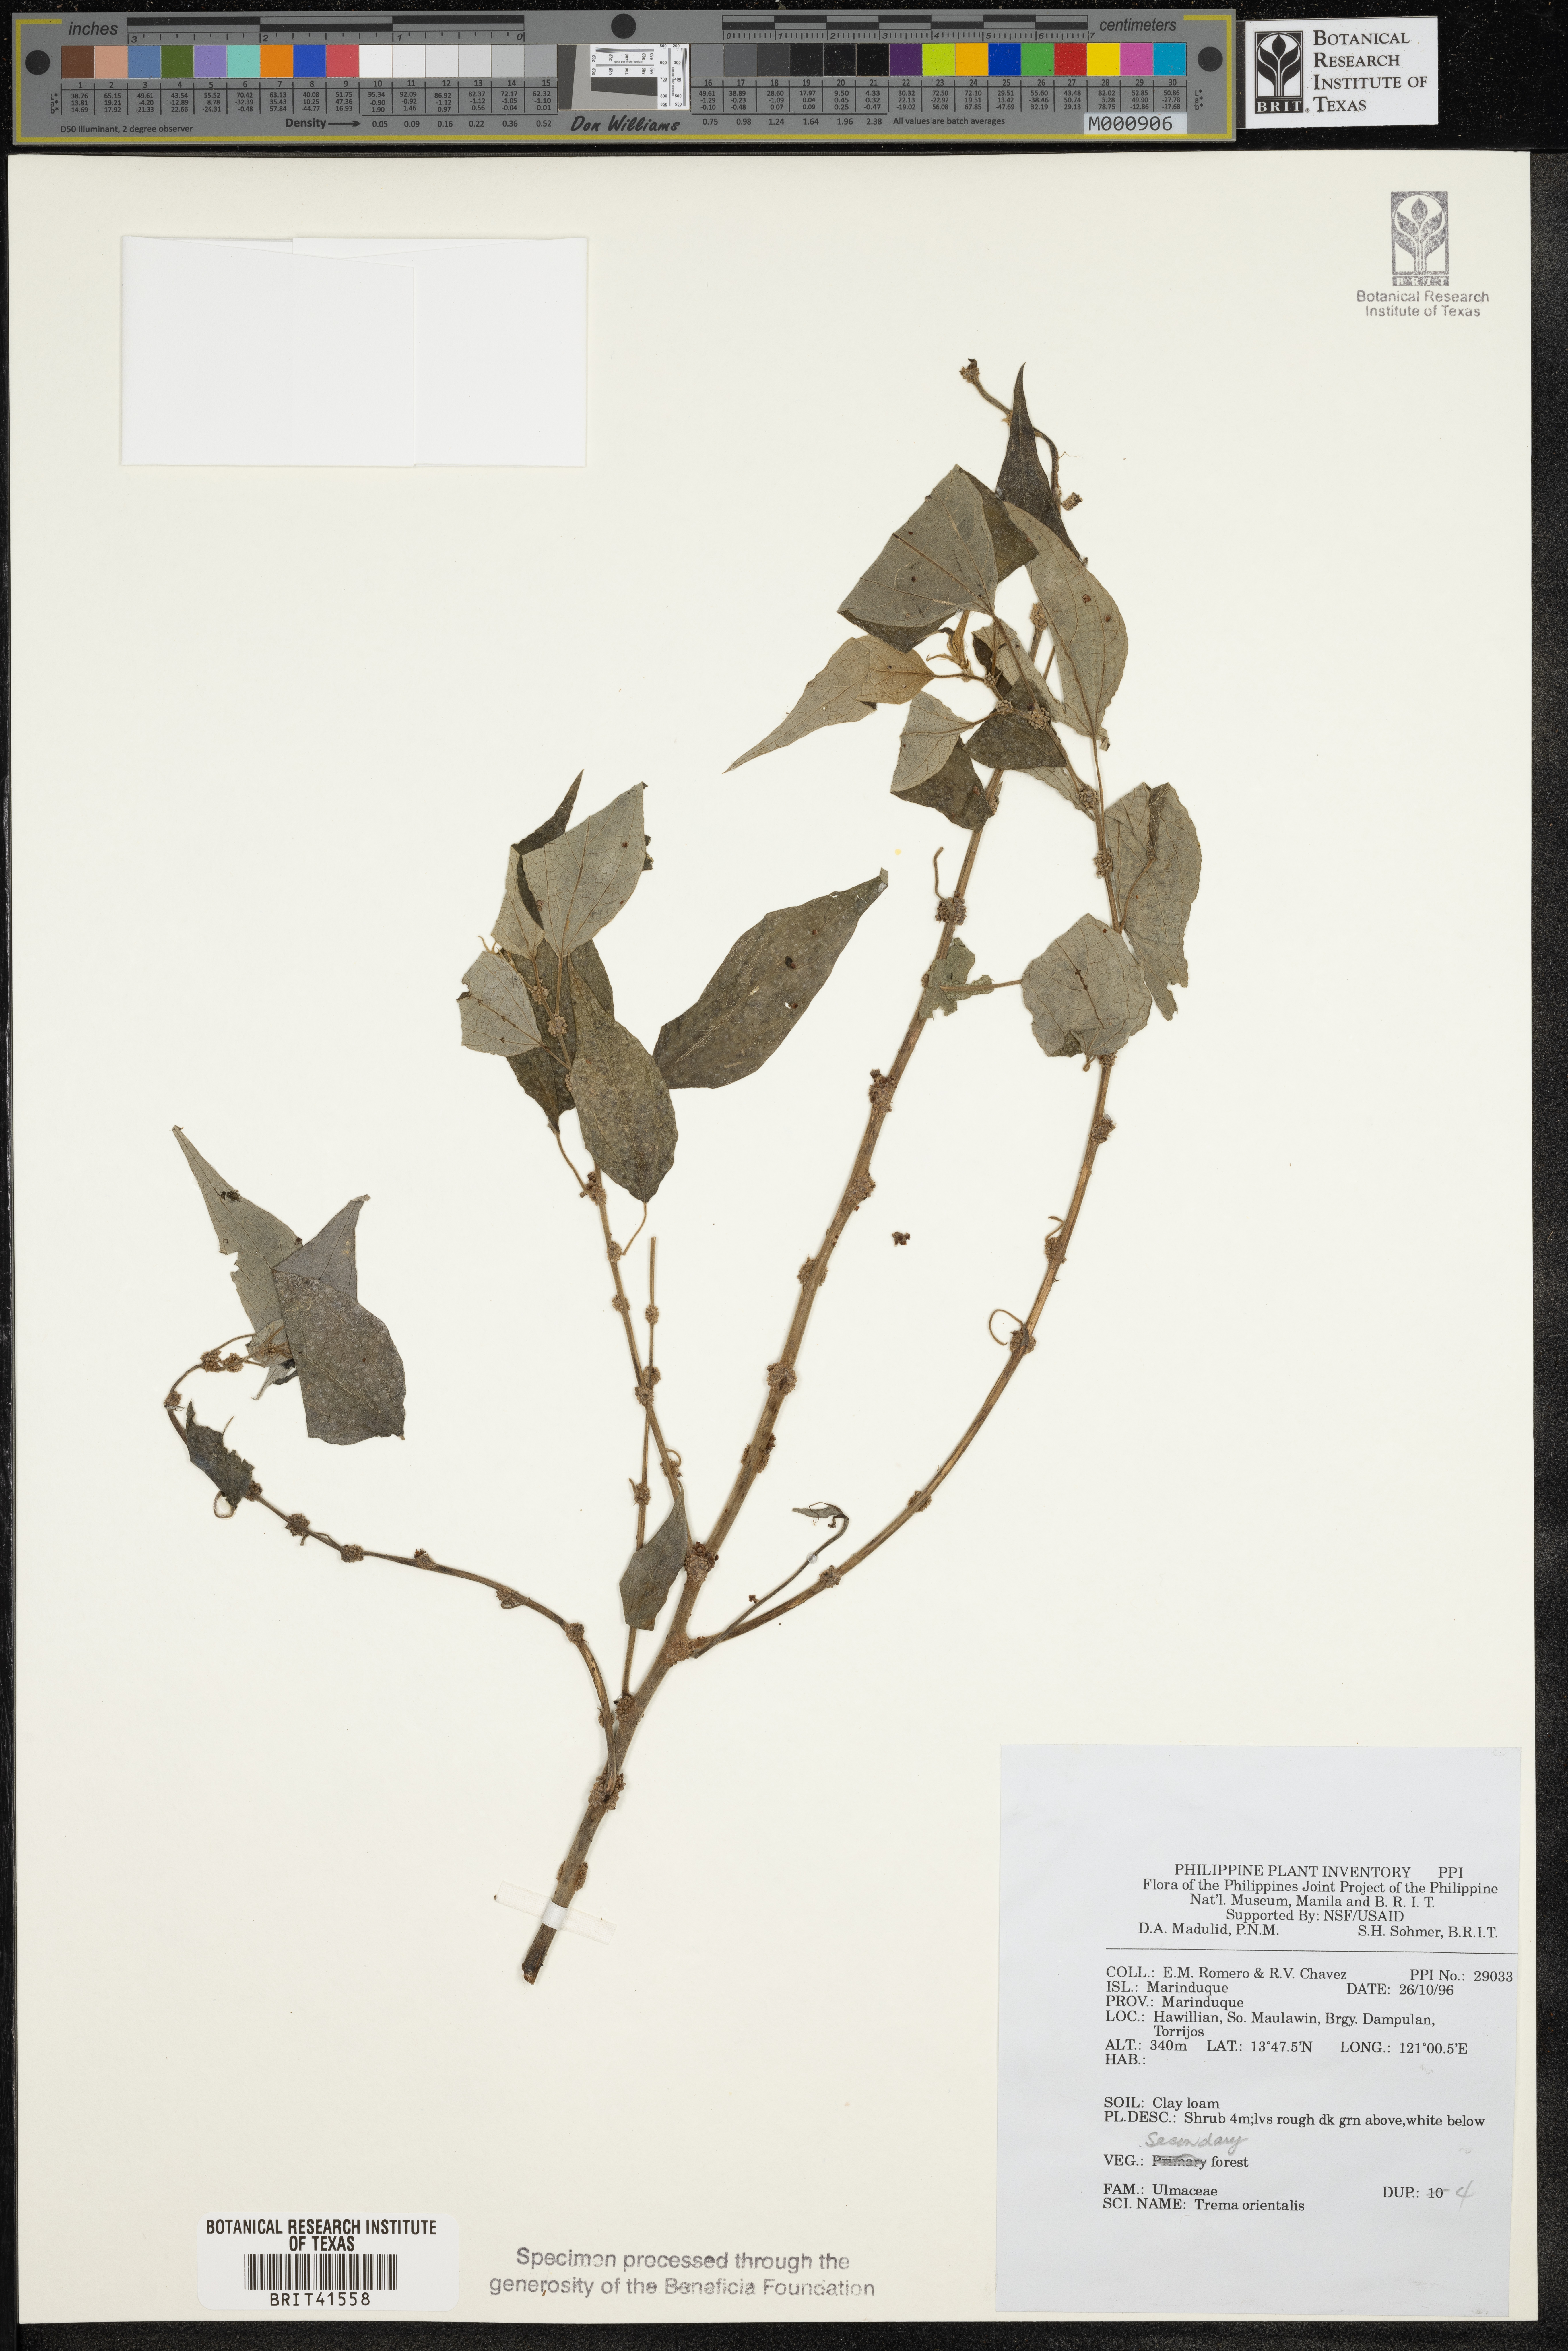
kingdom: Plantae
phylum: Tracheophyta
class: Magnoliopsida
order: Rosales
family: Cannabaceae
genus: Trema
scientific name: Trema orientale
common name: Indian charcoal tree
